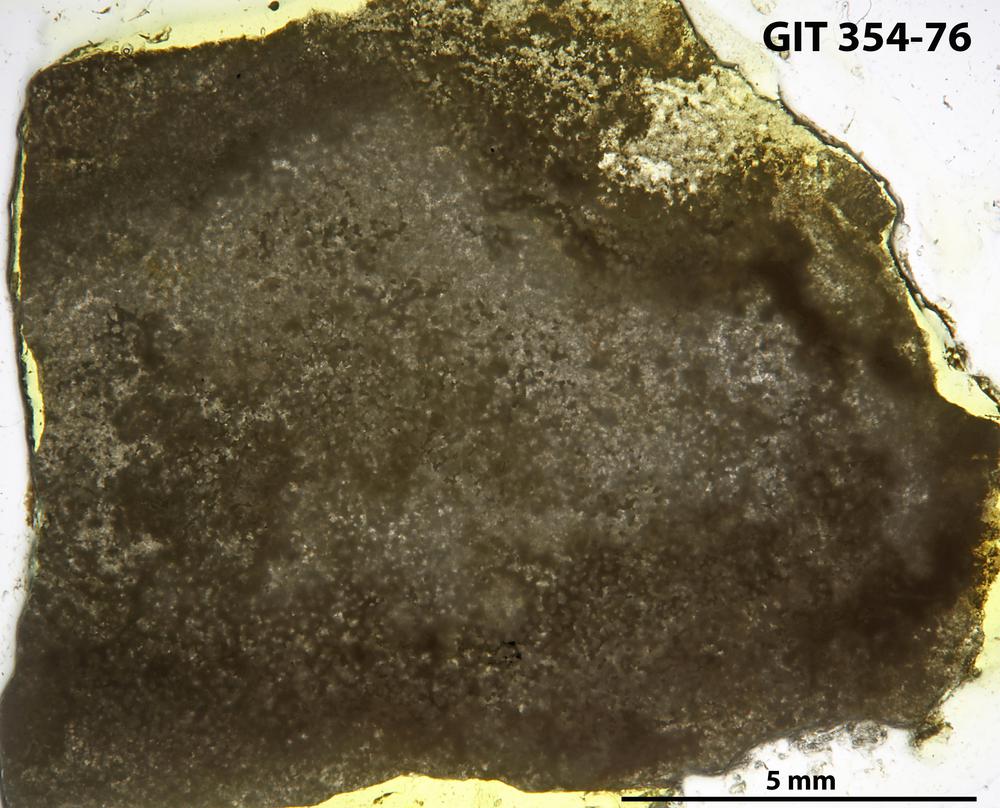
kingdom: Animalia
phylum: Porifera
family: Clathrodictyidae
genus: Clathrodictyon
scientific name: Clathrodictyon gregale
